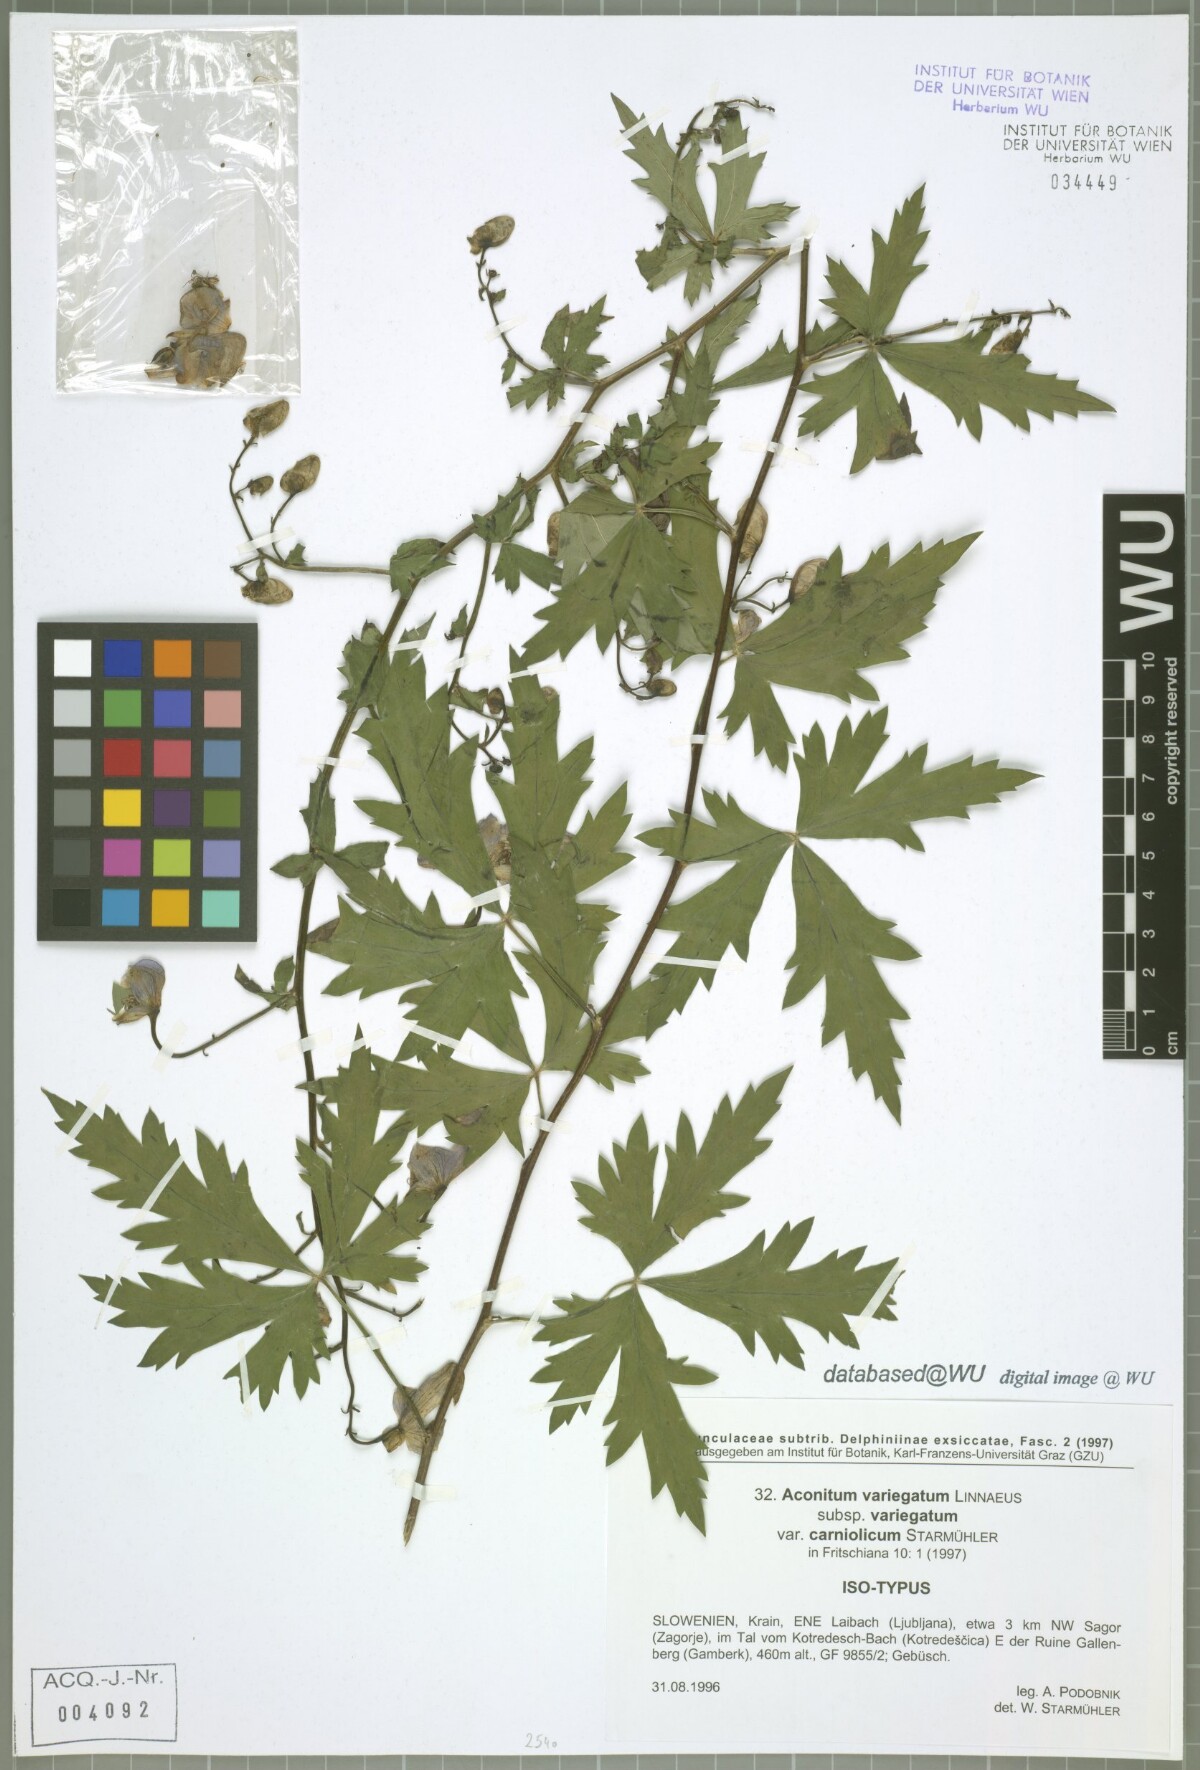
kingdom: Plantae
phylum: Tracheophyta
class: Magnoliopsida
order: Ranunculales
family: Ranunculaceae
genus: Aconitum
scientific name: Aconitum variegatum
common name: Manchurian monkshood
